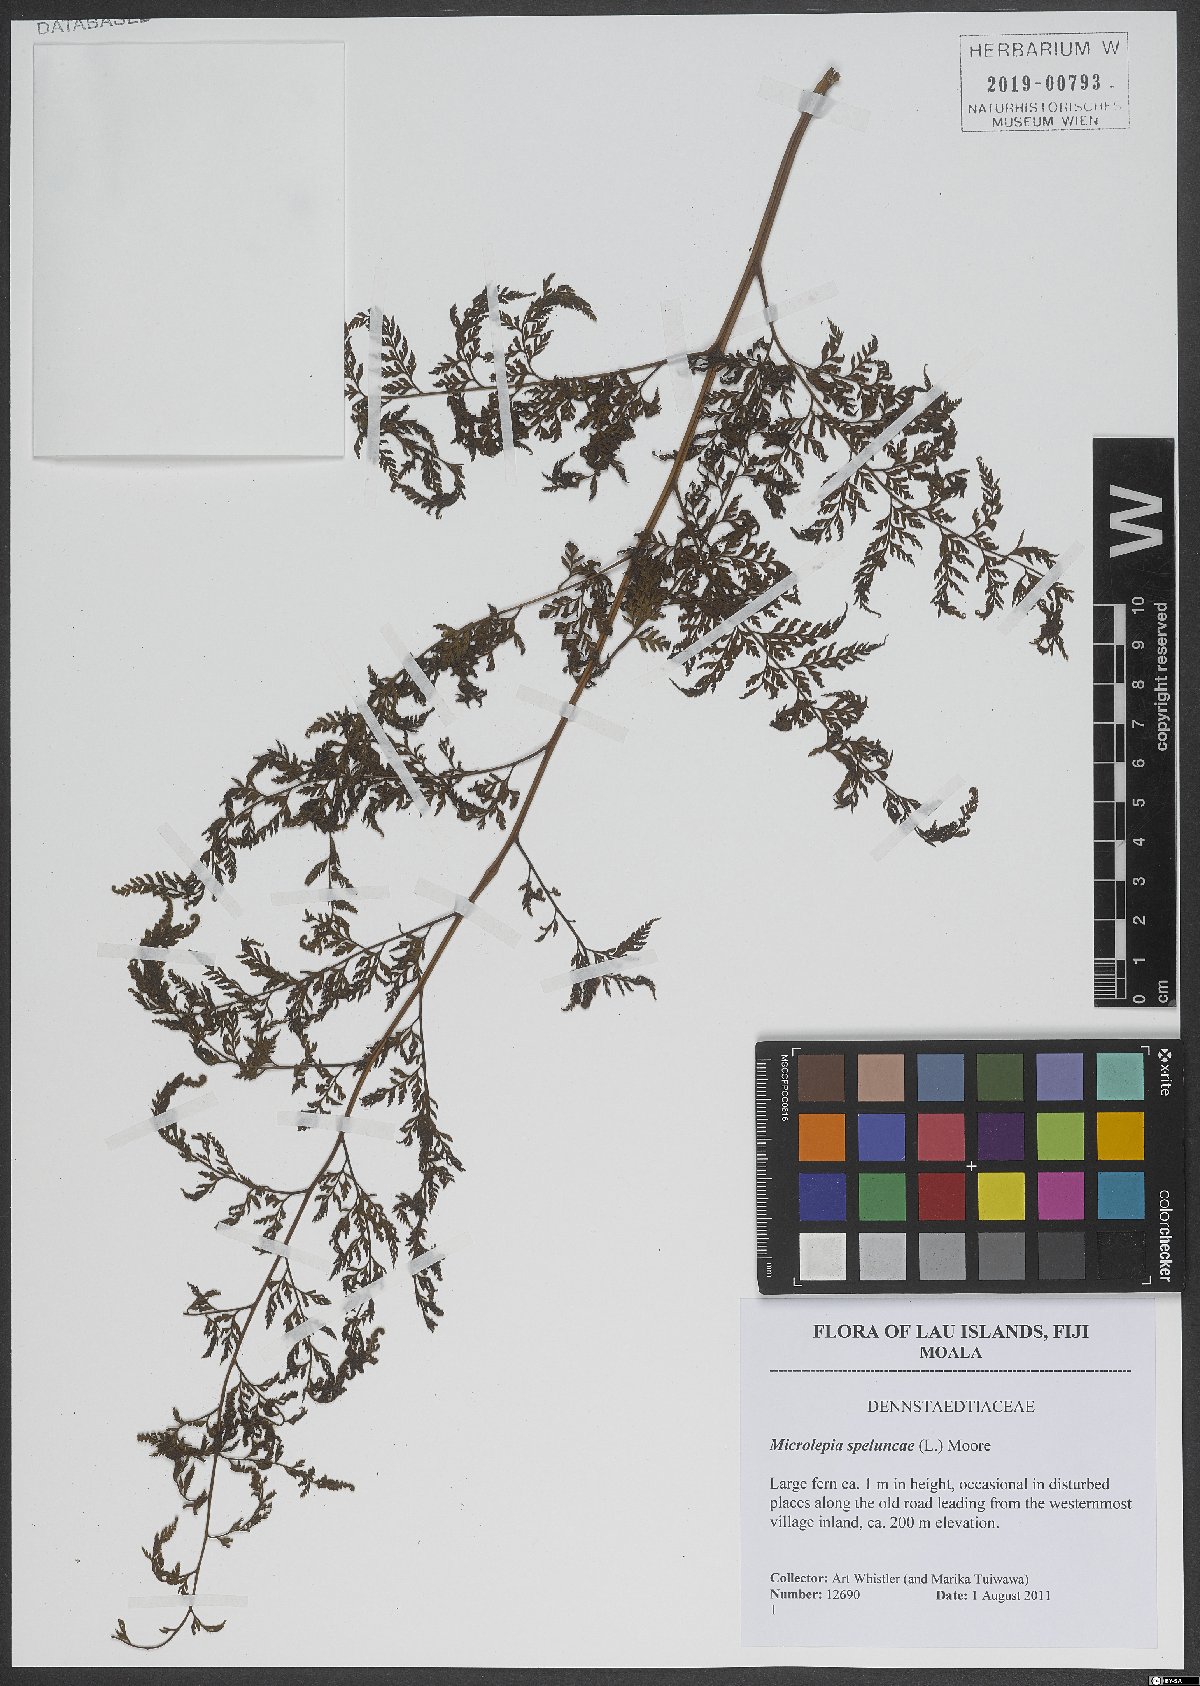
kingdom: Plantae
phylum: Tracheophyta
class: Polypodiopsida
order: Polypodiales
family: Dennstaedtiaceae
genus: Microlepia
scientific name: Microlepia speluncae
